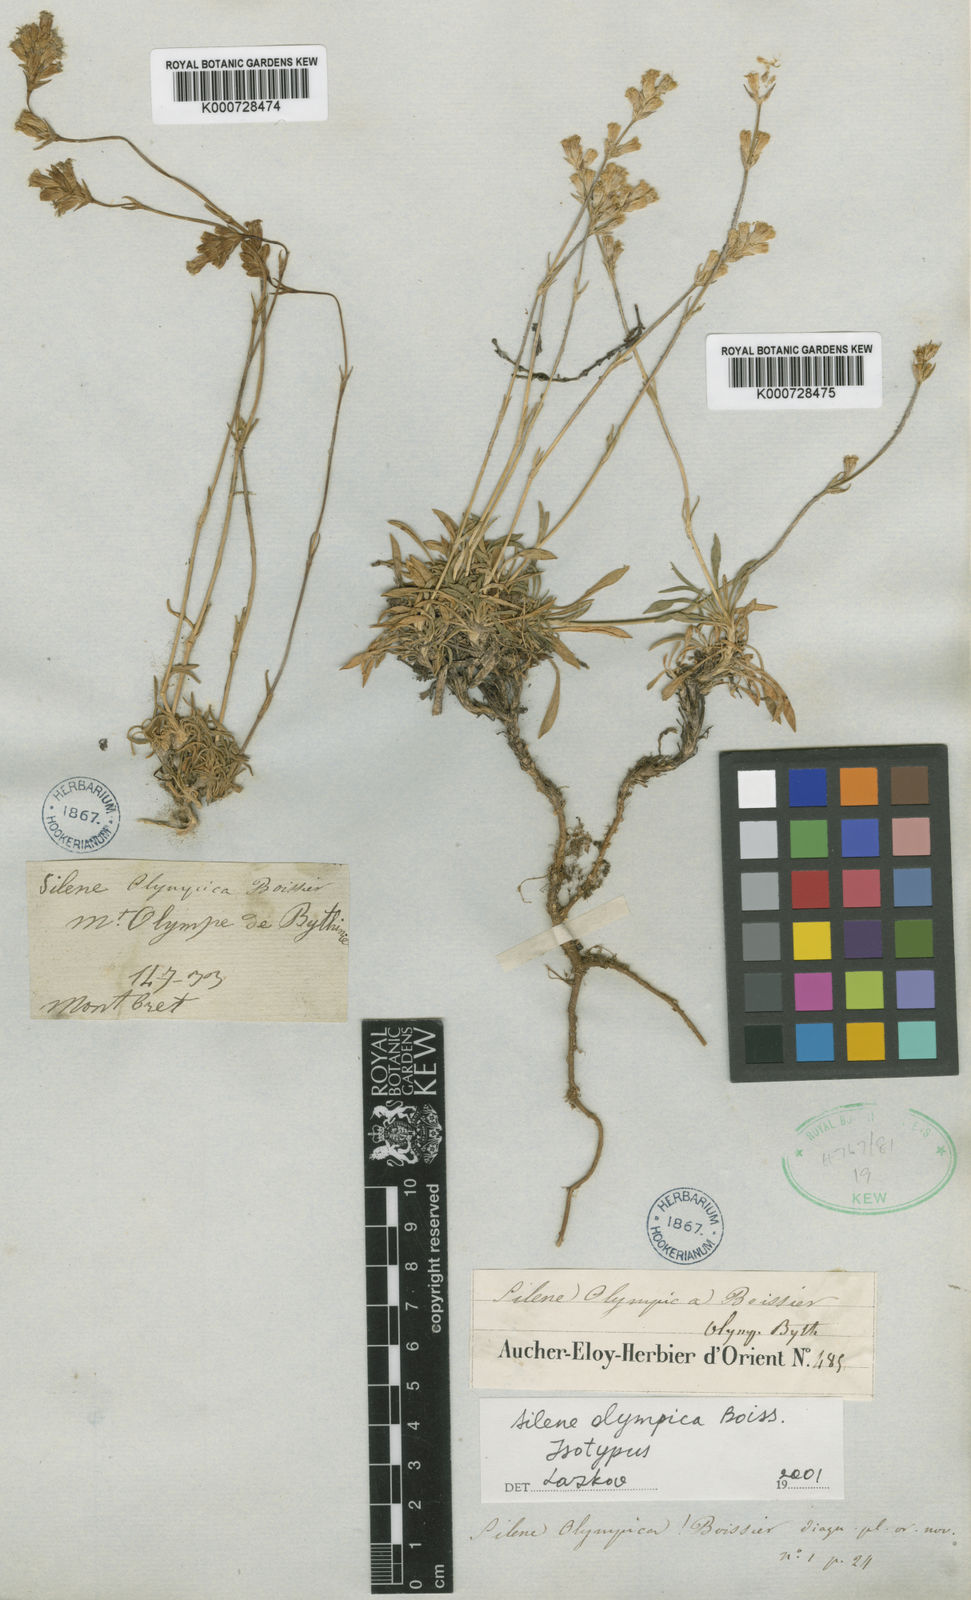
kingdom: Plantae
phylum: Tracheophyta
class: Magnoliopsida
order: Caryophyllales
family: Caryophyllaceae
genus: Silene
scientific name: Silene olympica
